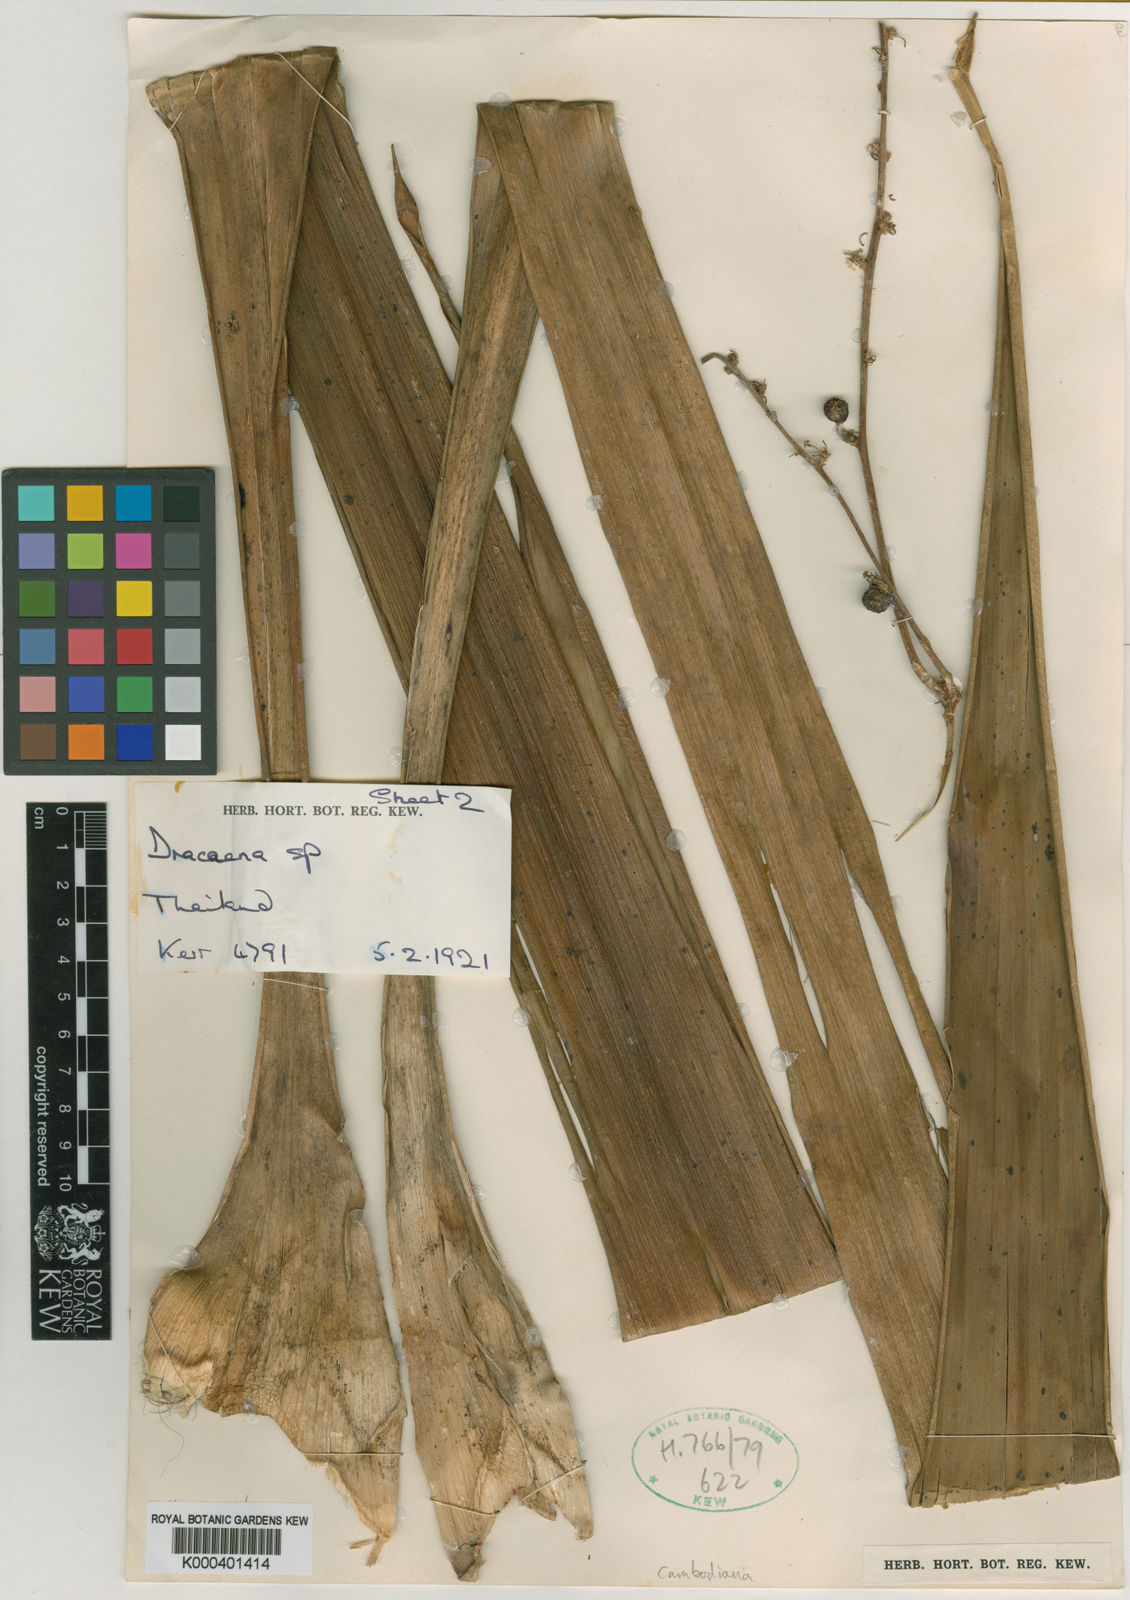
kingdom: Plantae
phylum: Tracheophyta
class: Liliopsida
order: Asparagales
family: Asparagaceae
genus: Dracaena
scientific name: Dracaena cambodiana
